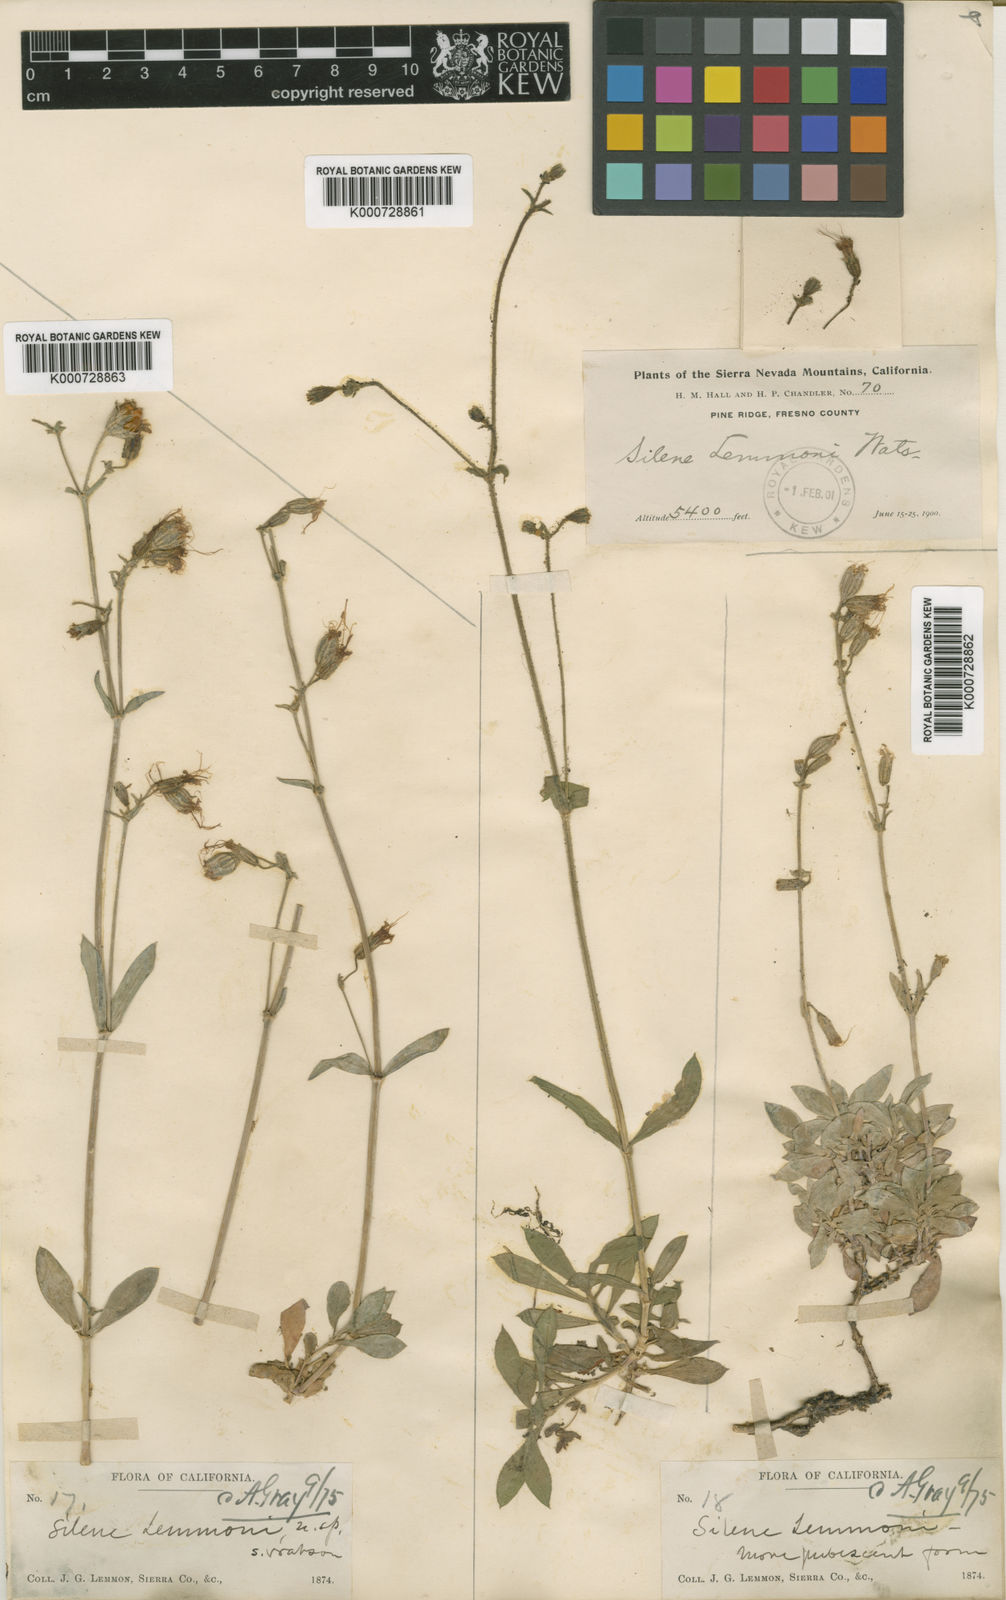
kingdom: Plantae
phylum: Tracheophyta
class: Magnoliopsida
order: Caryophyllales
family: Caryophyllaceae
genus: Silene
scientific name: Silene lemmonii
